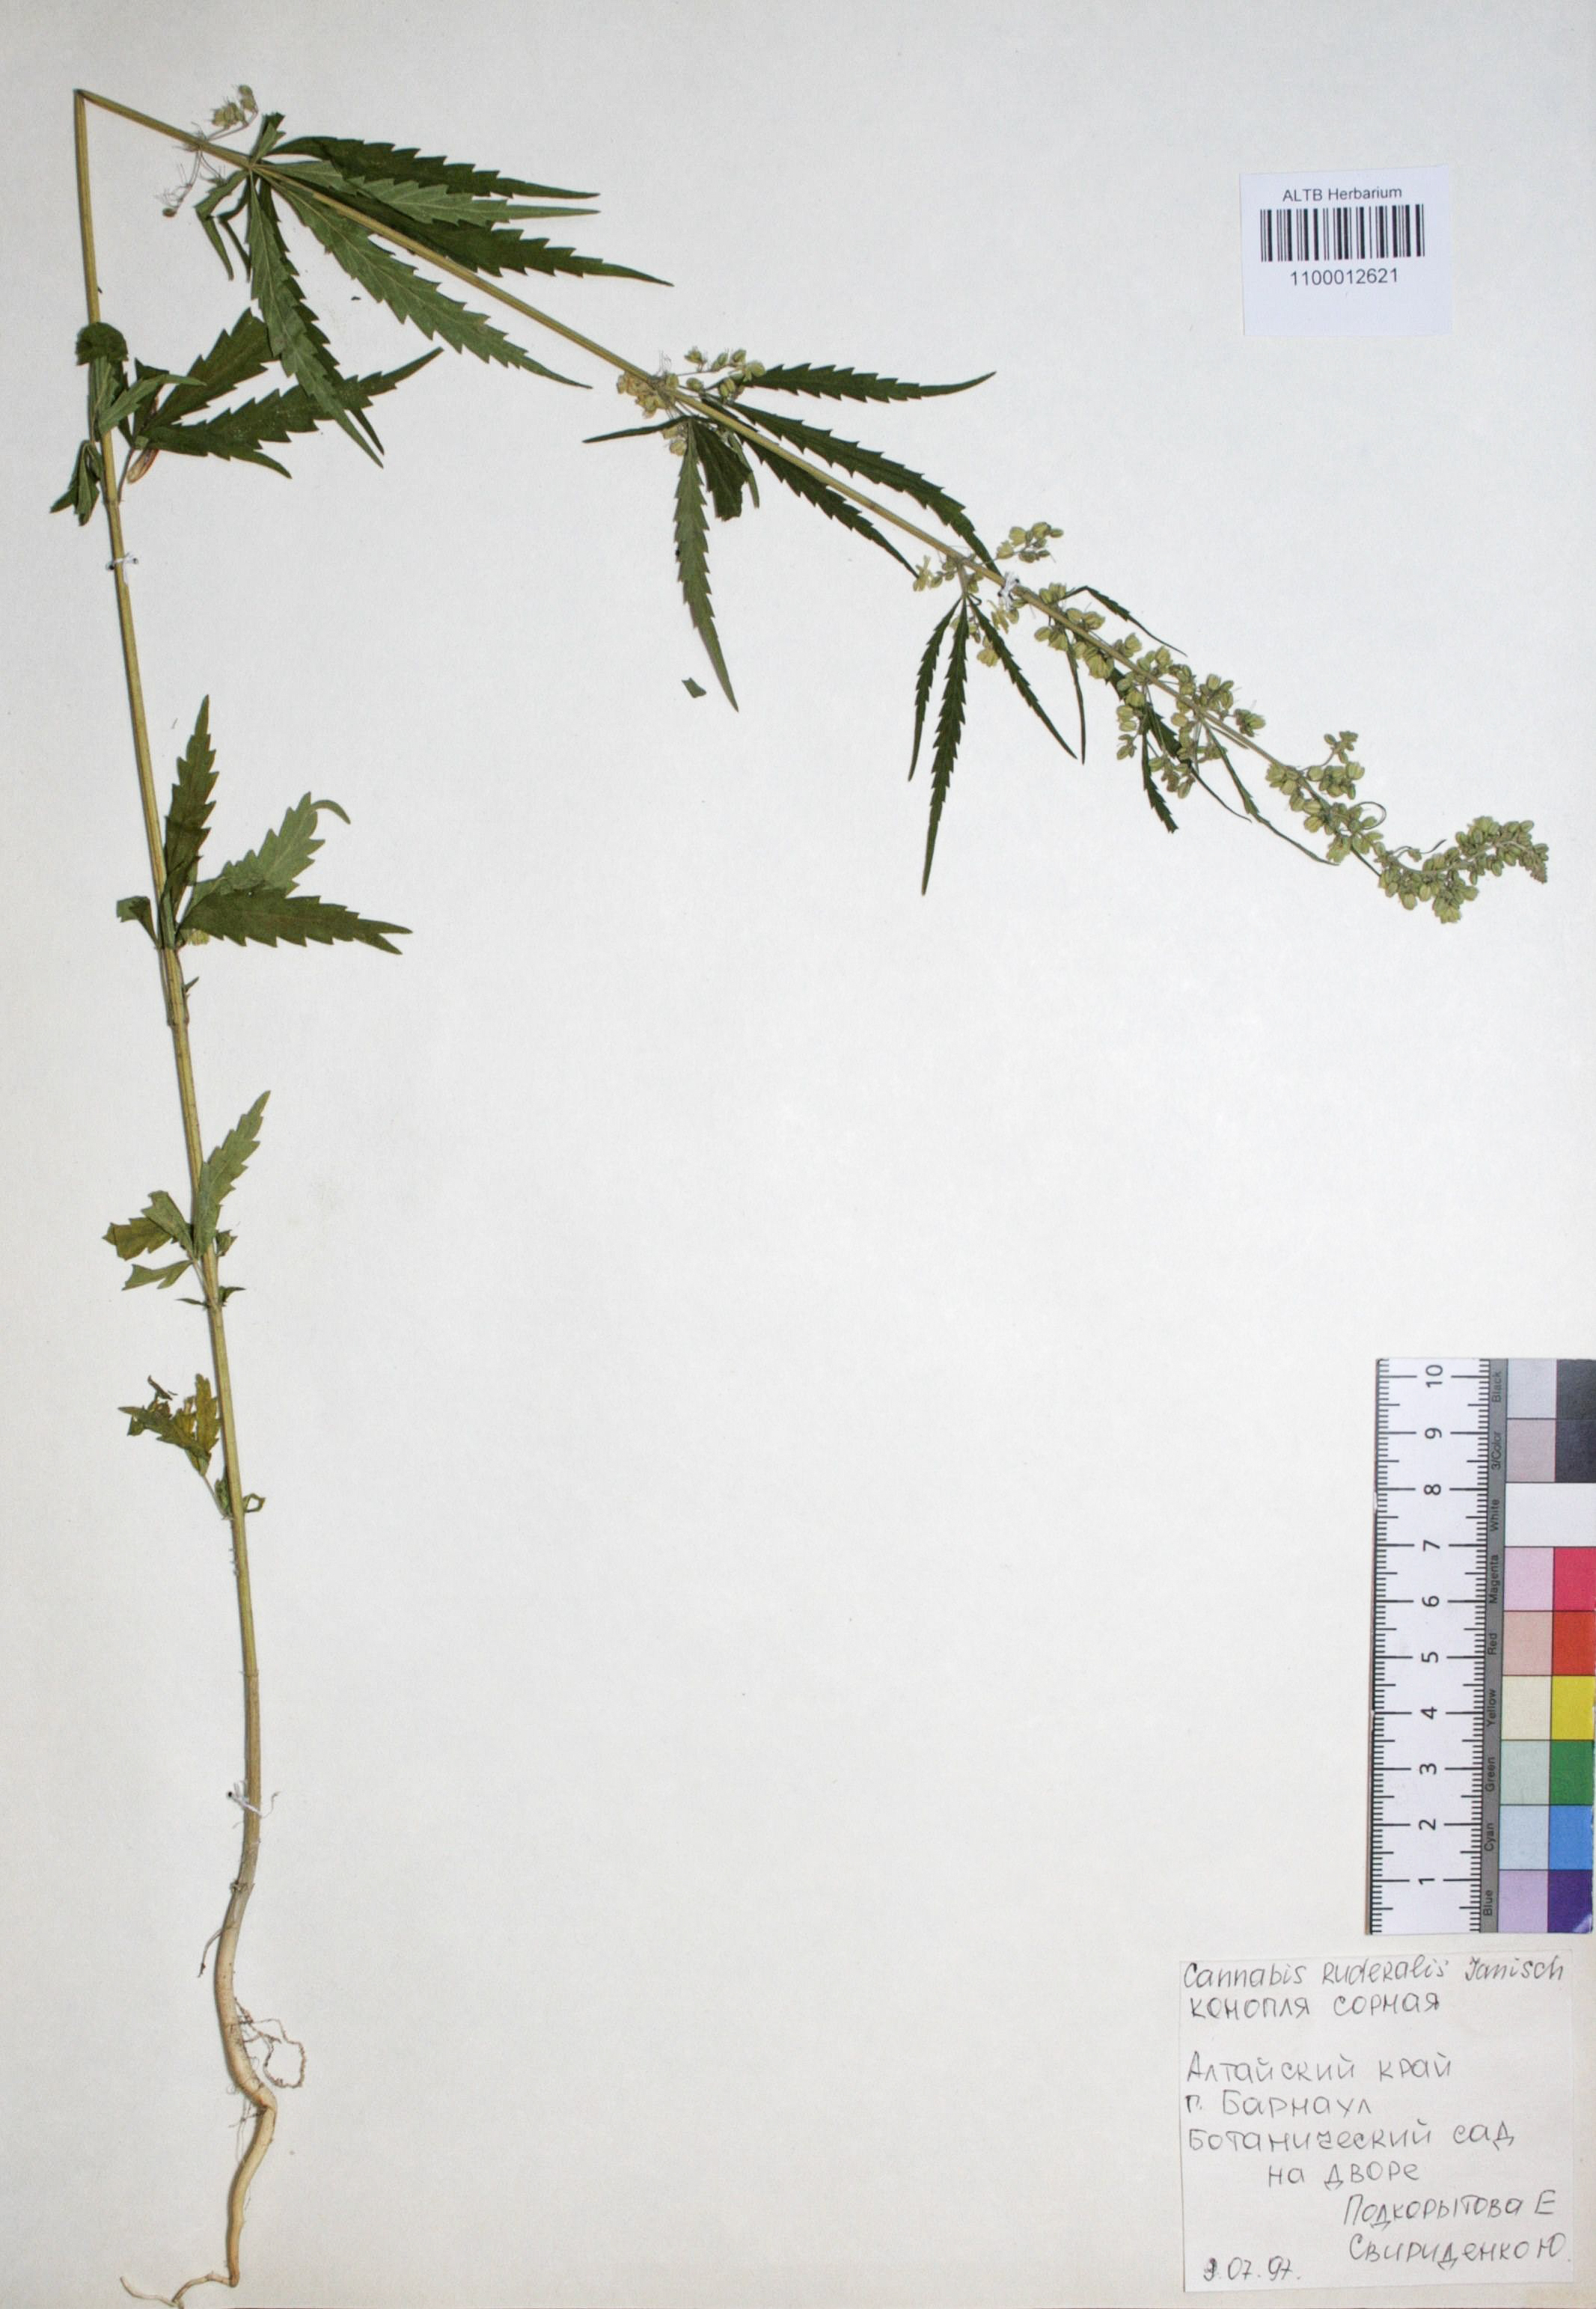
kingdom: Plantae
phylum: Tracheophyta
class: Magnoliopsida
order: Rosales
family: Cannabaceae
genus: Cannabis
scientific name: Cannabis sativa
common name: Hemp
